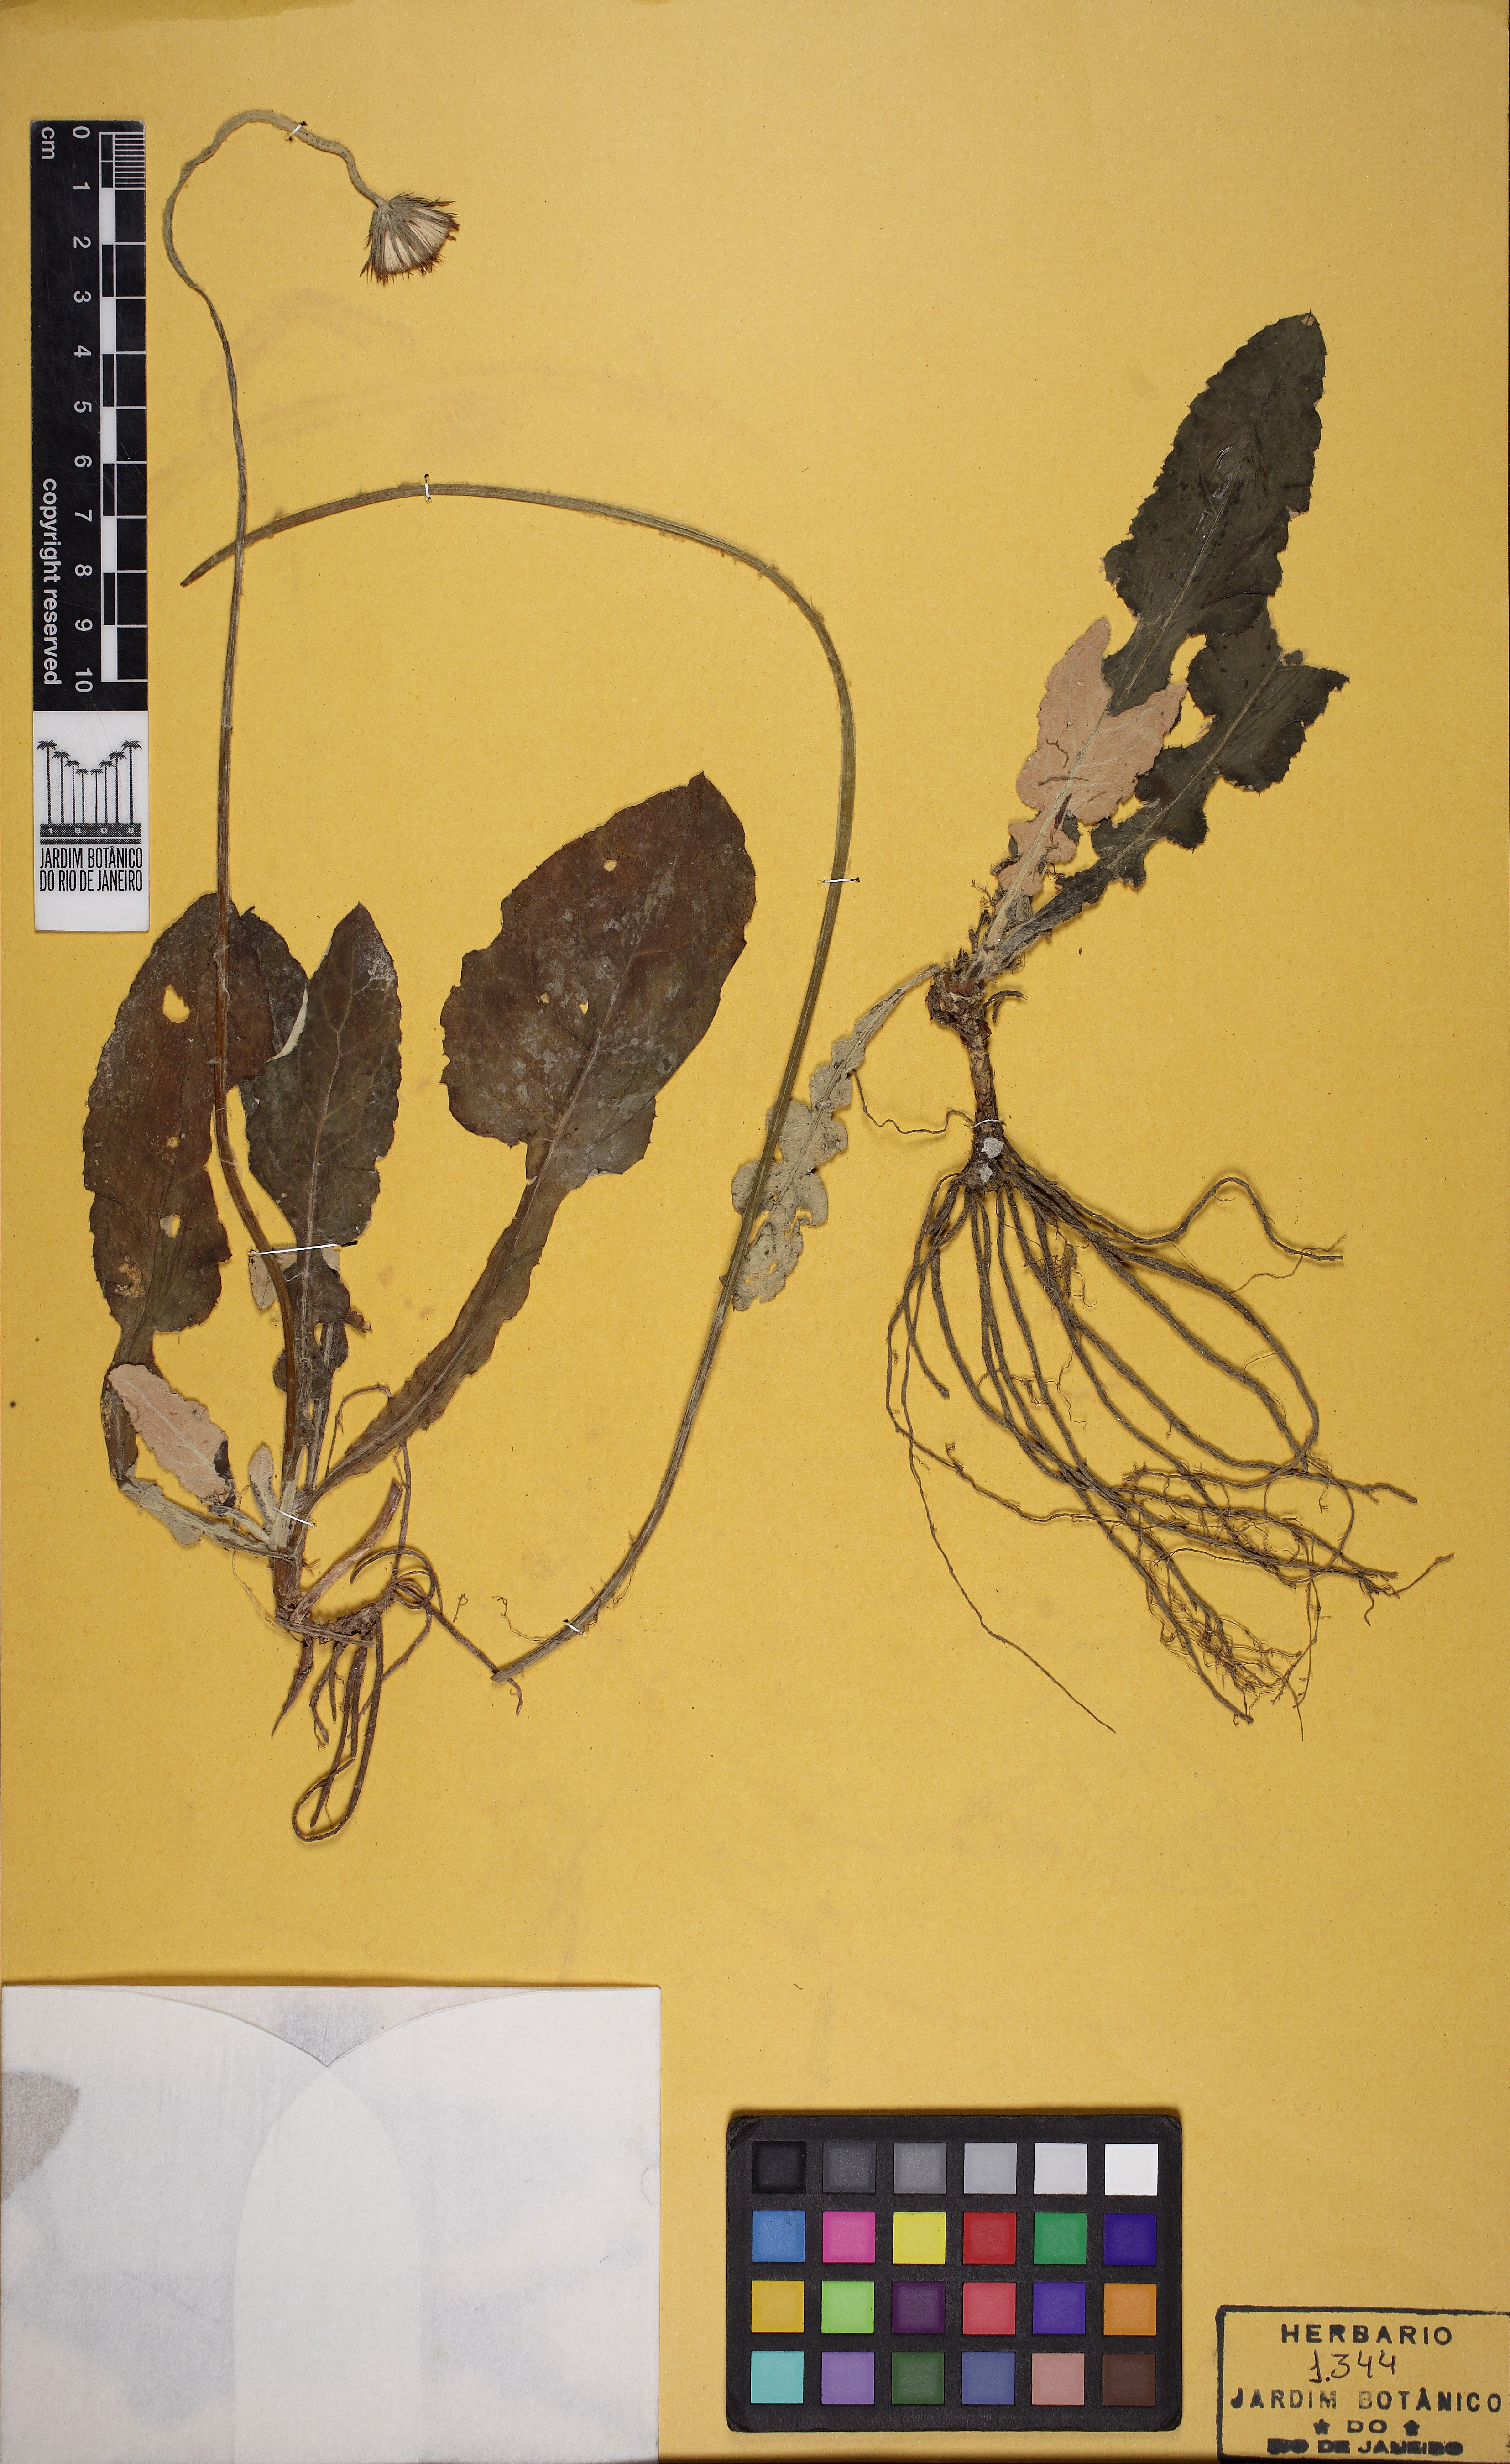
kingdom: Plantae
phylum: Tracheophyta
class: Magnoliopsida
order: Asterales
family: Asteraceae
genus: Chaptalia
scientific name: Chaptalia nutans
